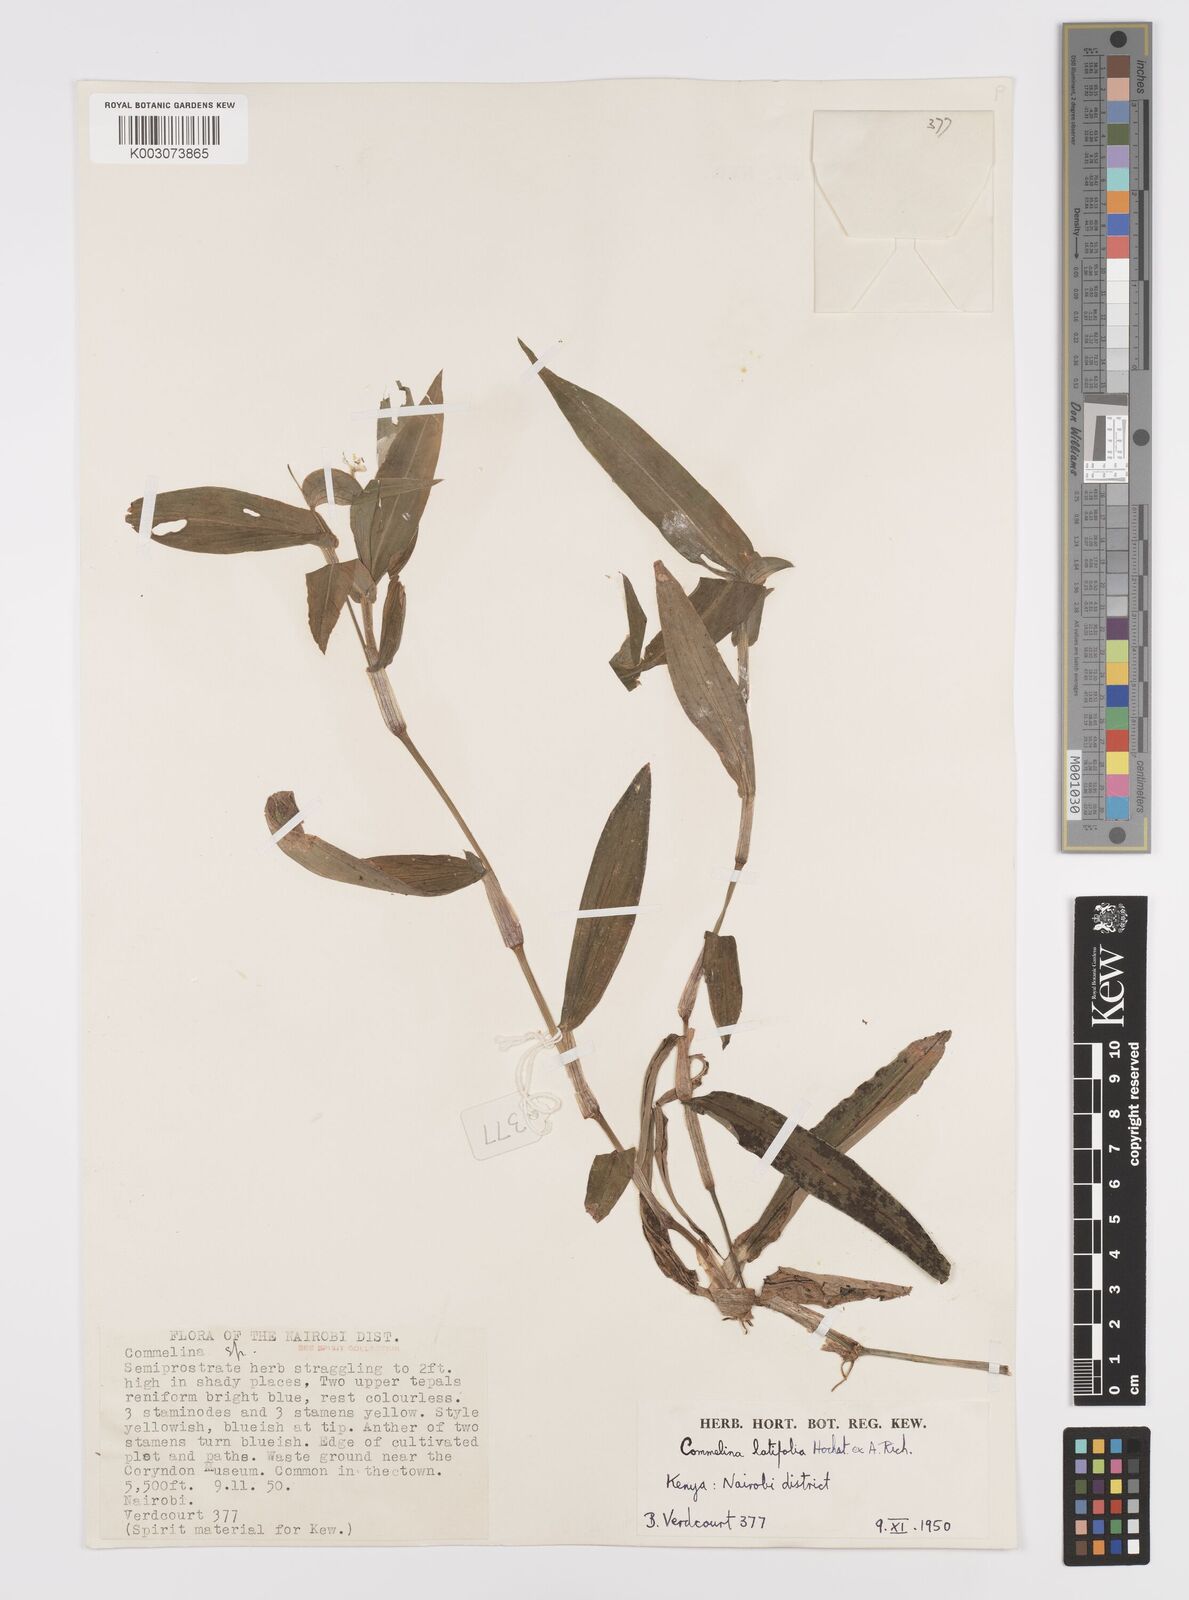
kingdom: Plantae
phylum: Tracheophyta
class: Liliopsida
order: Commelinales
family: Commelinaceae
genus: Commelina
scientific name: Commelina latifolia
